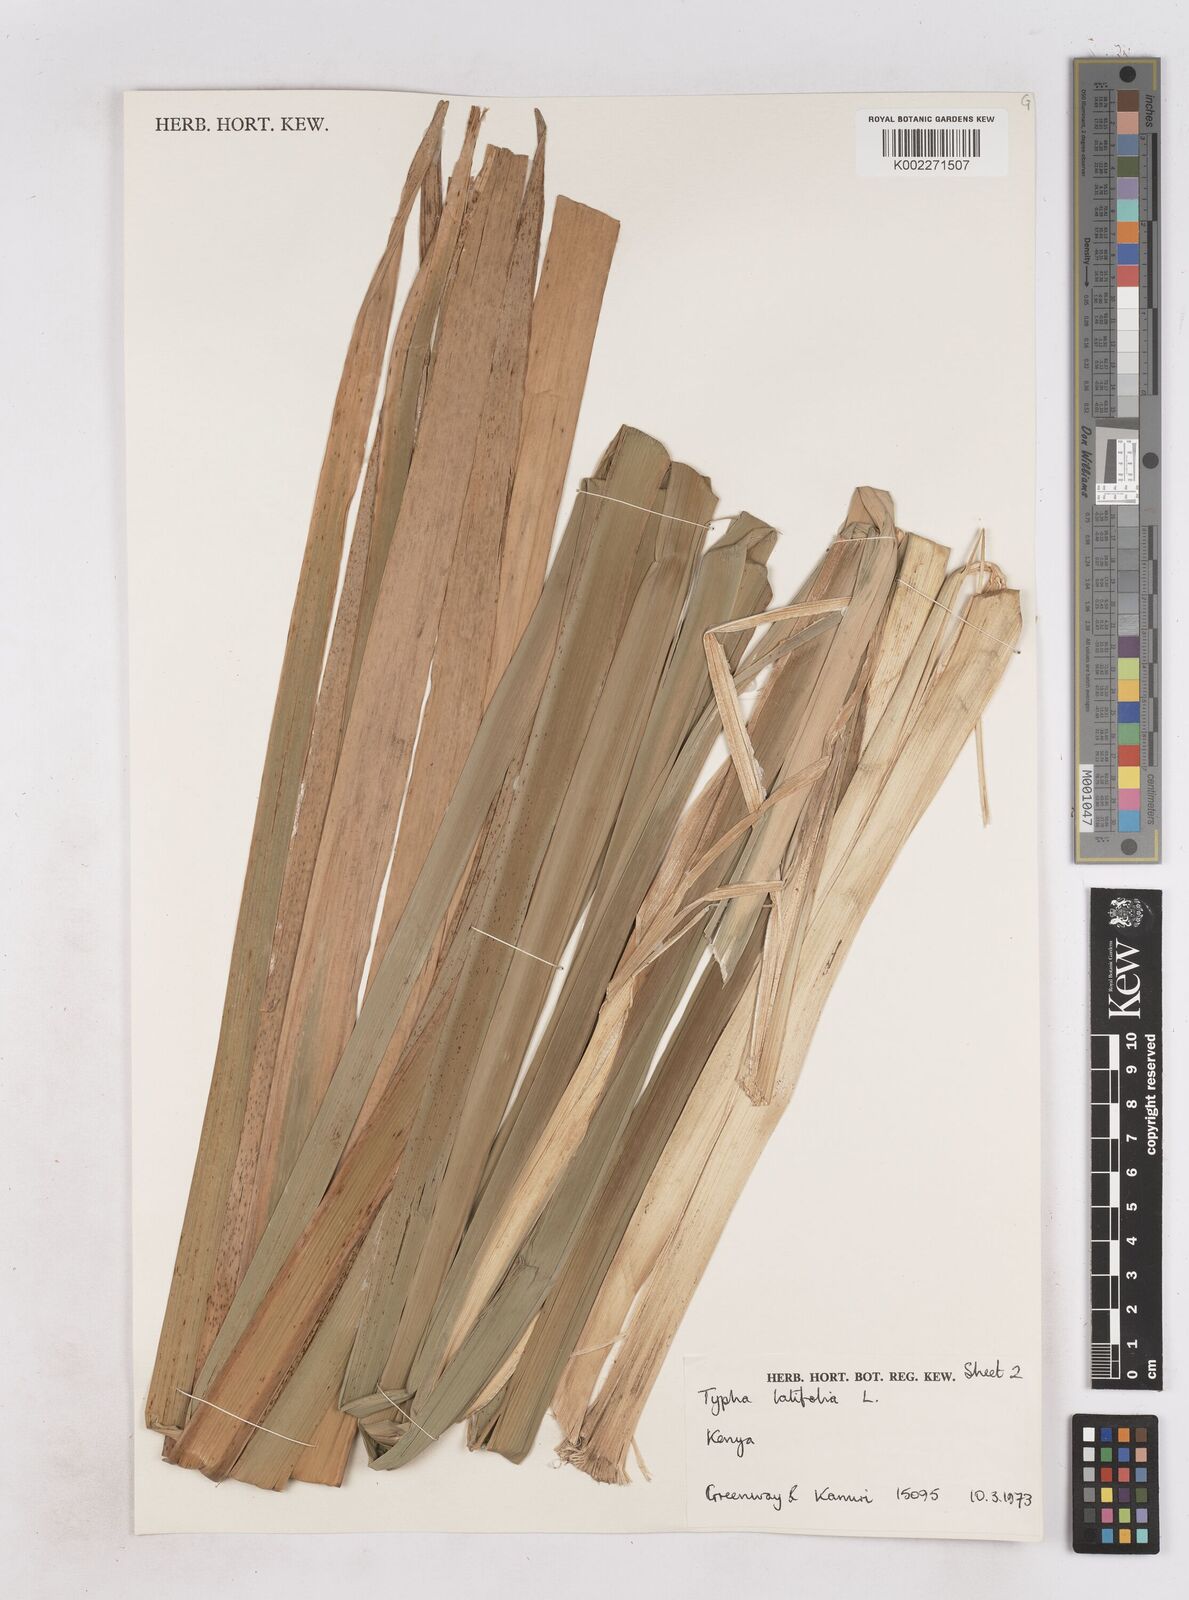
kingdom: Plantae
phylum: Tracheophyta
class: Liliopsida
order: Poales
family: Typhaceae
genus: Typha
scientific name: Typha latifolia
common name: Broadleaf cattail
